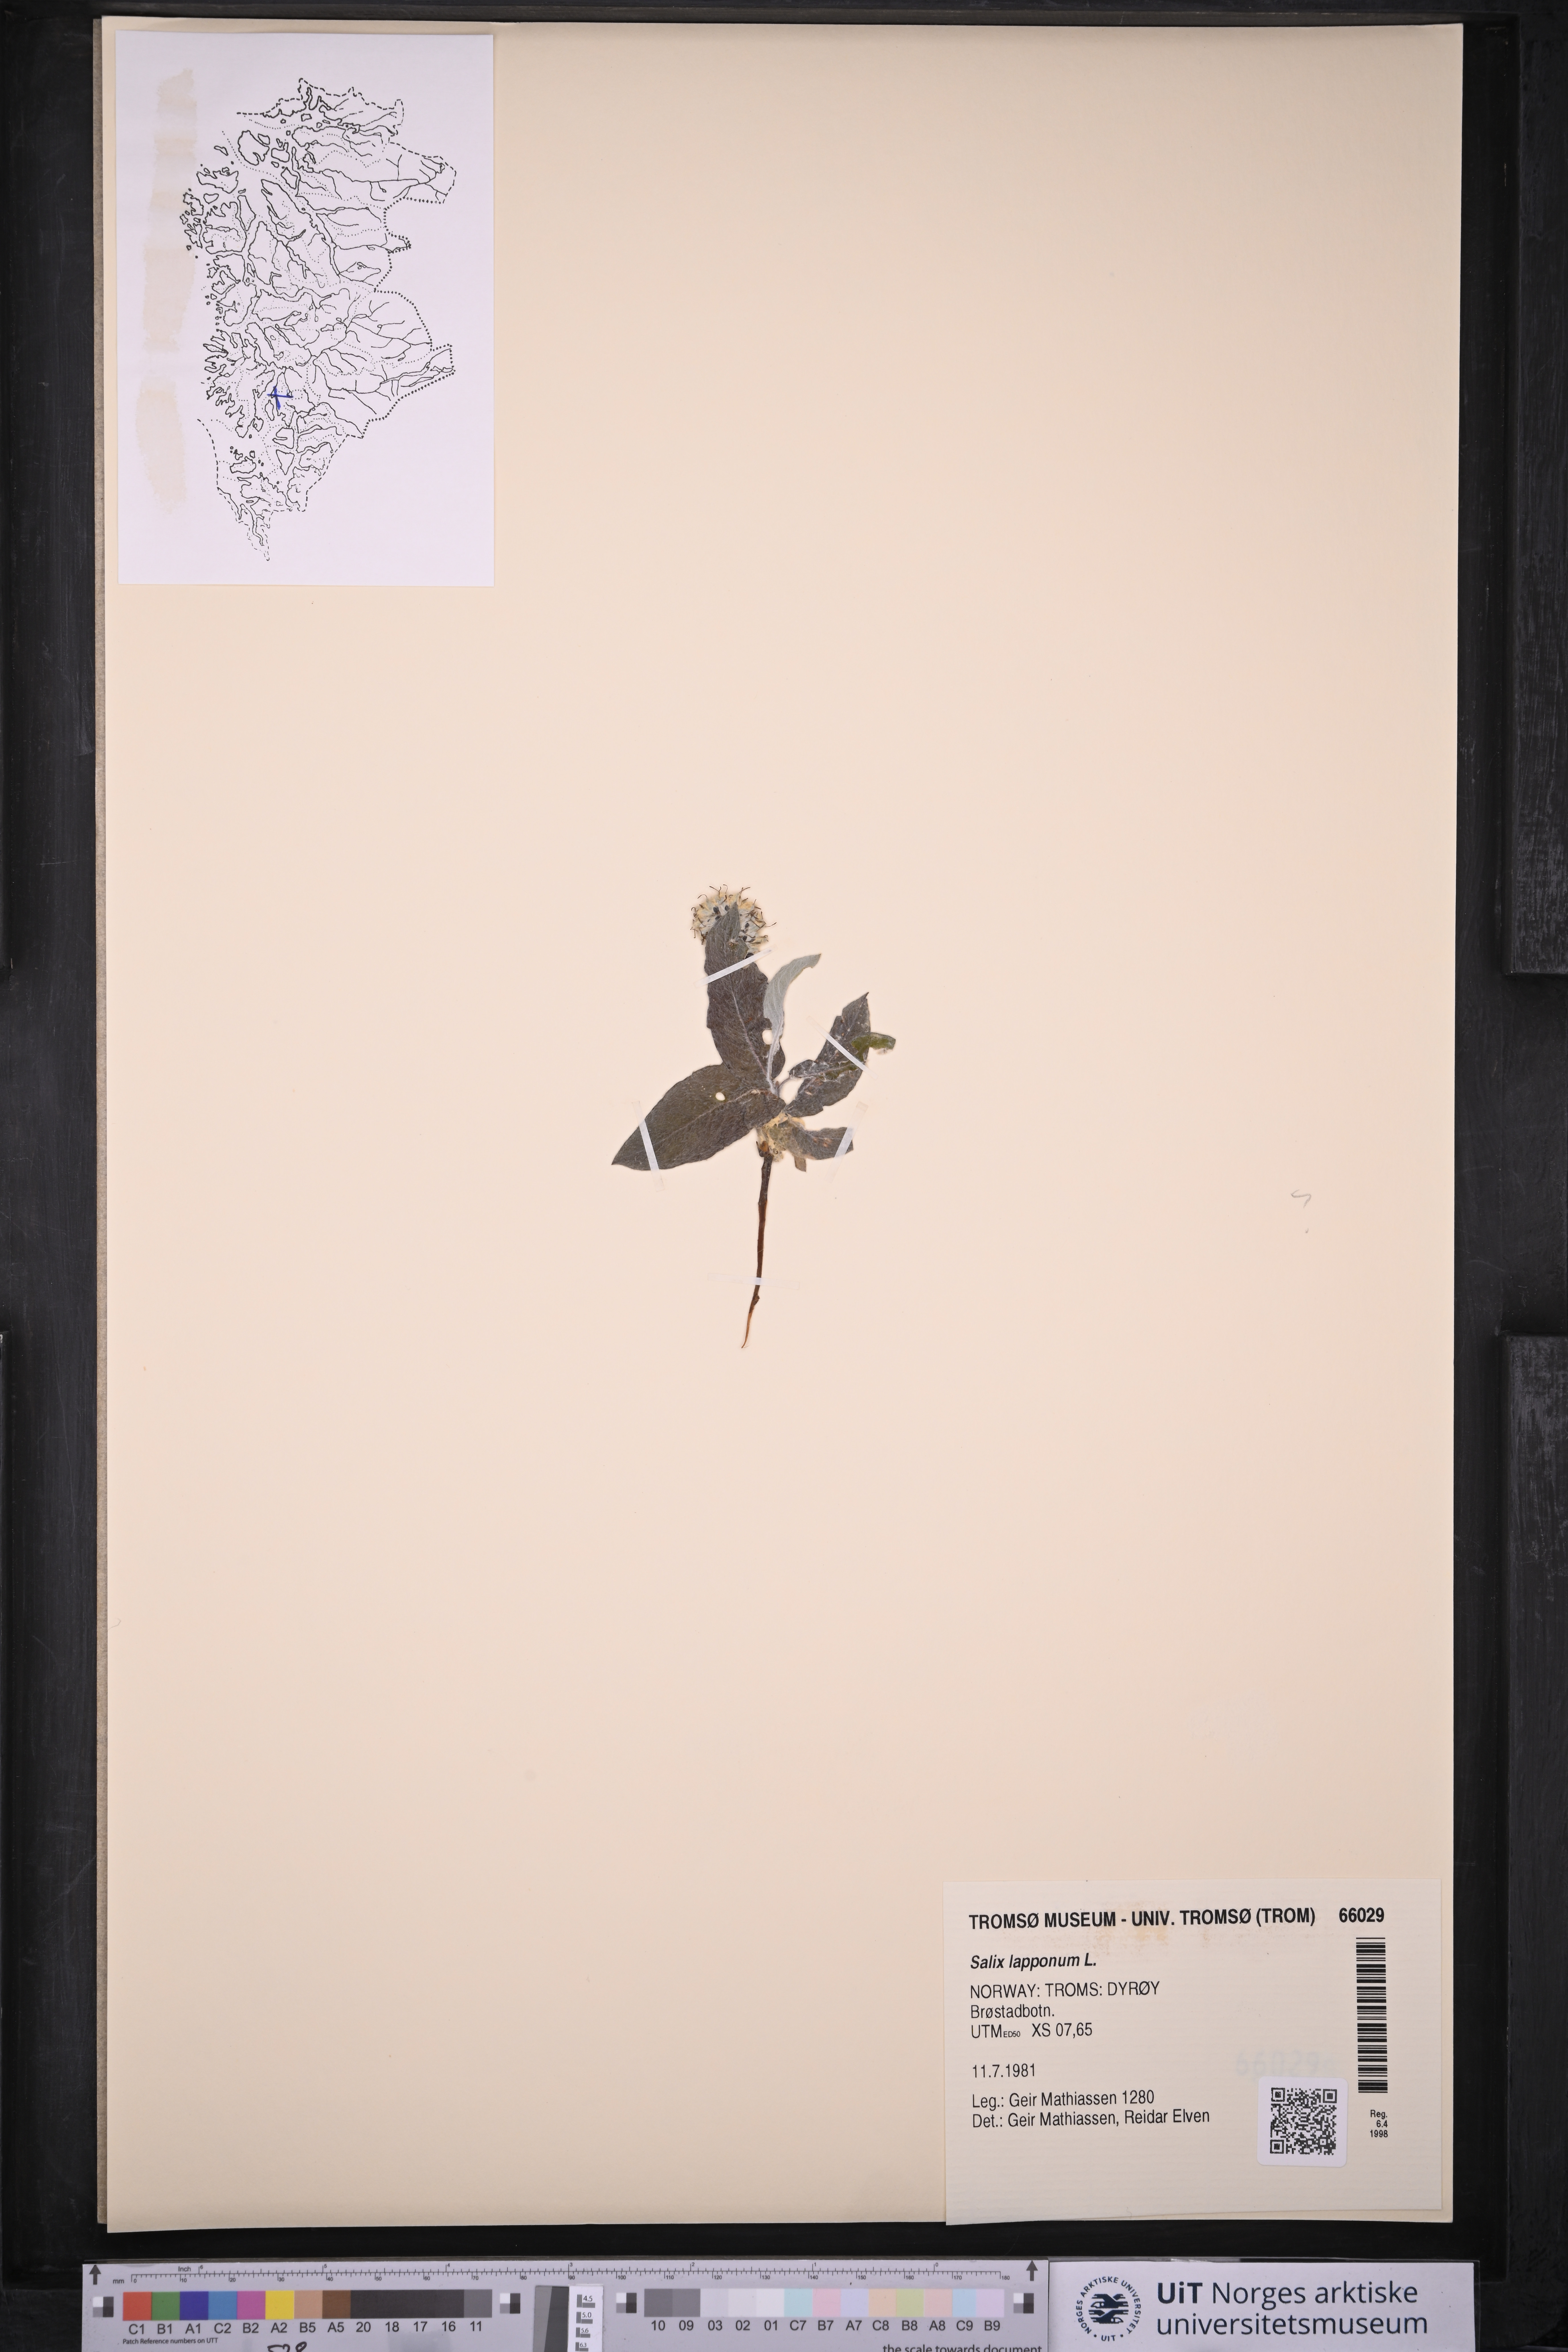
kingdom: Plantae
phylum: Tracheophyta
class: Magnoliopsida
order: Malpighiales
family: Salicaceae
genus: Salix
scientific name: Salix lapponum
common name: Downy willow
